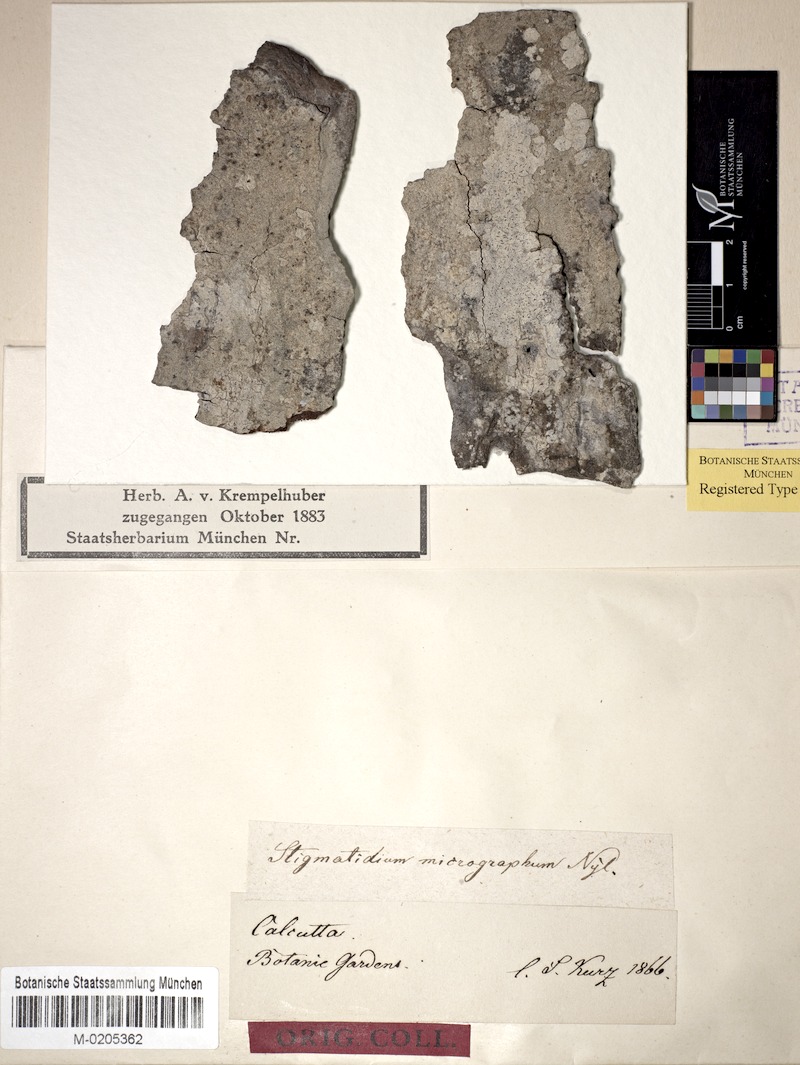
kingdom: Fungi
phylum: Ascomycota
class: Arthoniomycetes
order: Arthoniales
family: Roccellaceae
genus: Enterographa
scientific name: Enterographa micrographa
